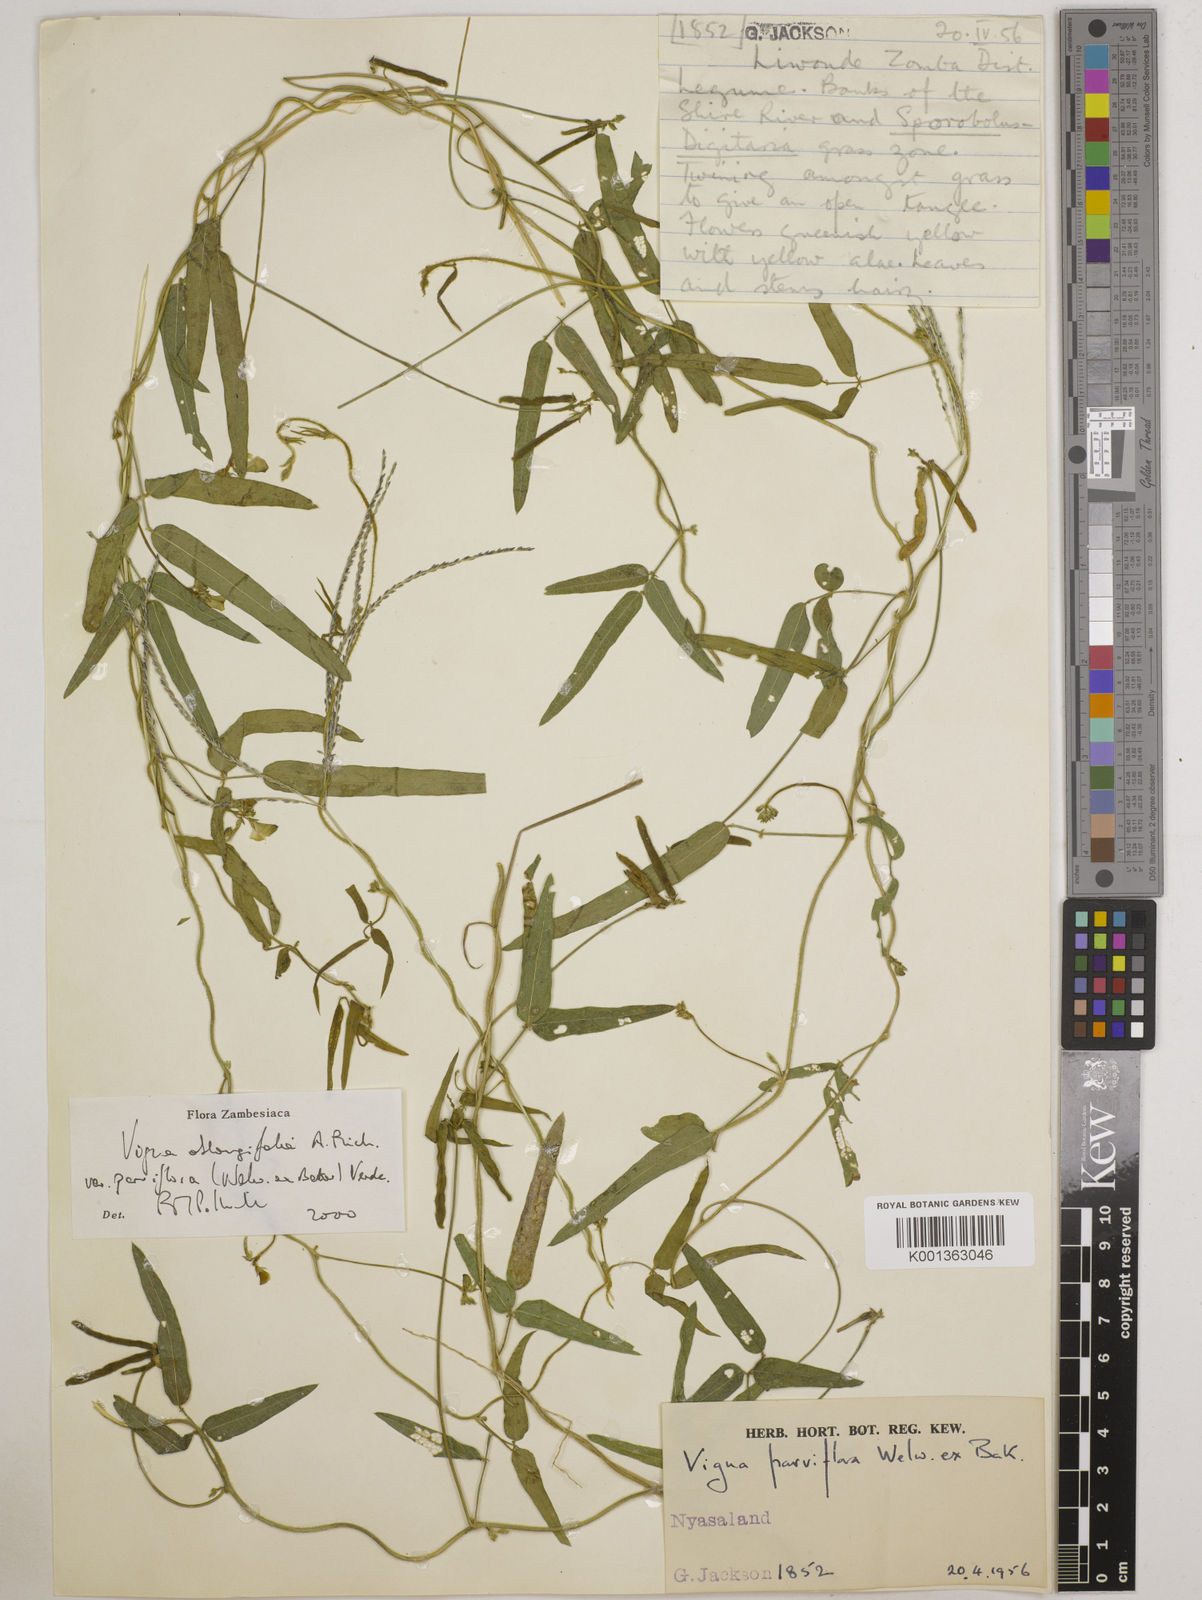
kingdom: Plantae
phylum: Tracheophyta
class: Magnoliopsida
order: Fabales
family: Fabaceae
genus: Vigna
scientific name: Vigna
